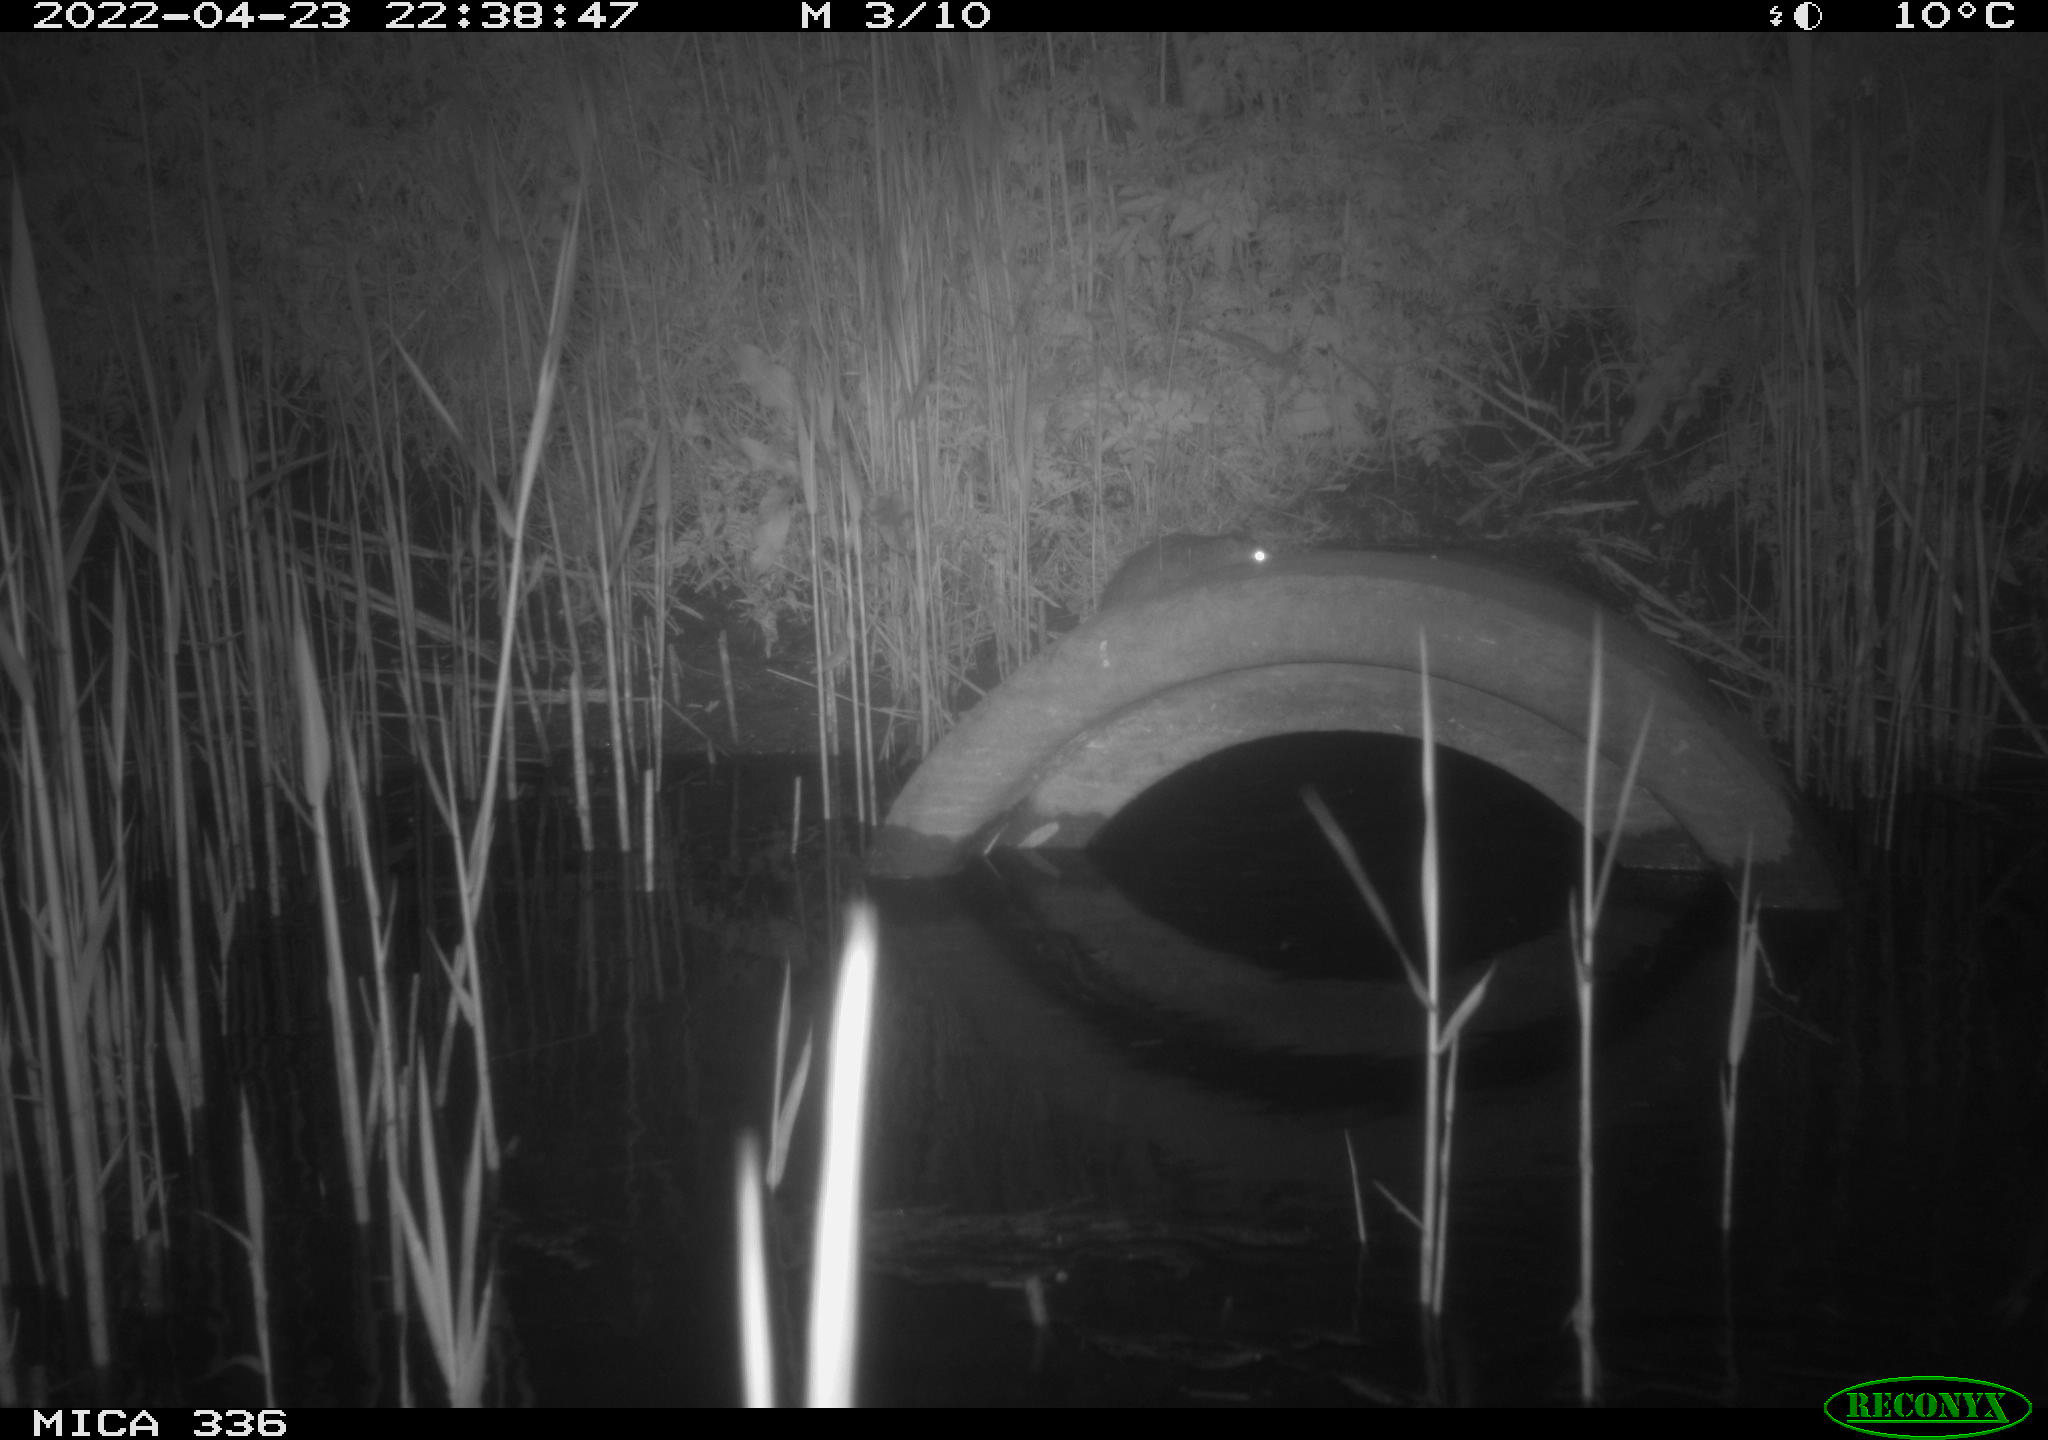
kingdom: Animalia
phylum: Chordata
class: Mammalia
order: Rodentia
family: Muridae
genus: Rattus
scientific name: Rattus norvegicus
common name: Brown rat
